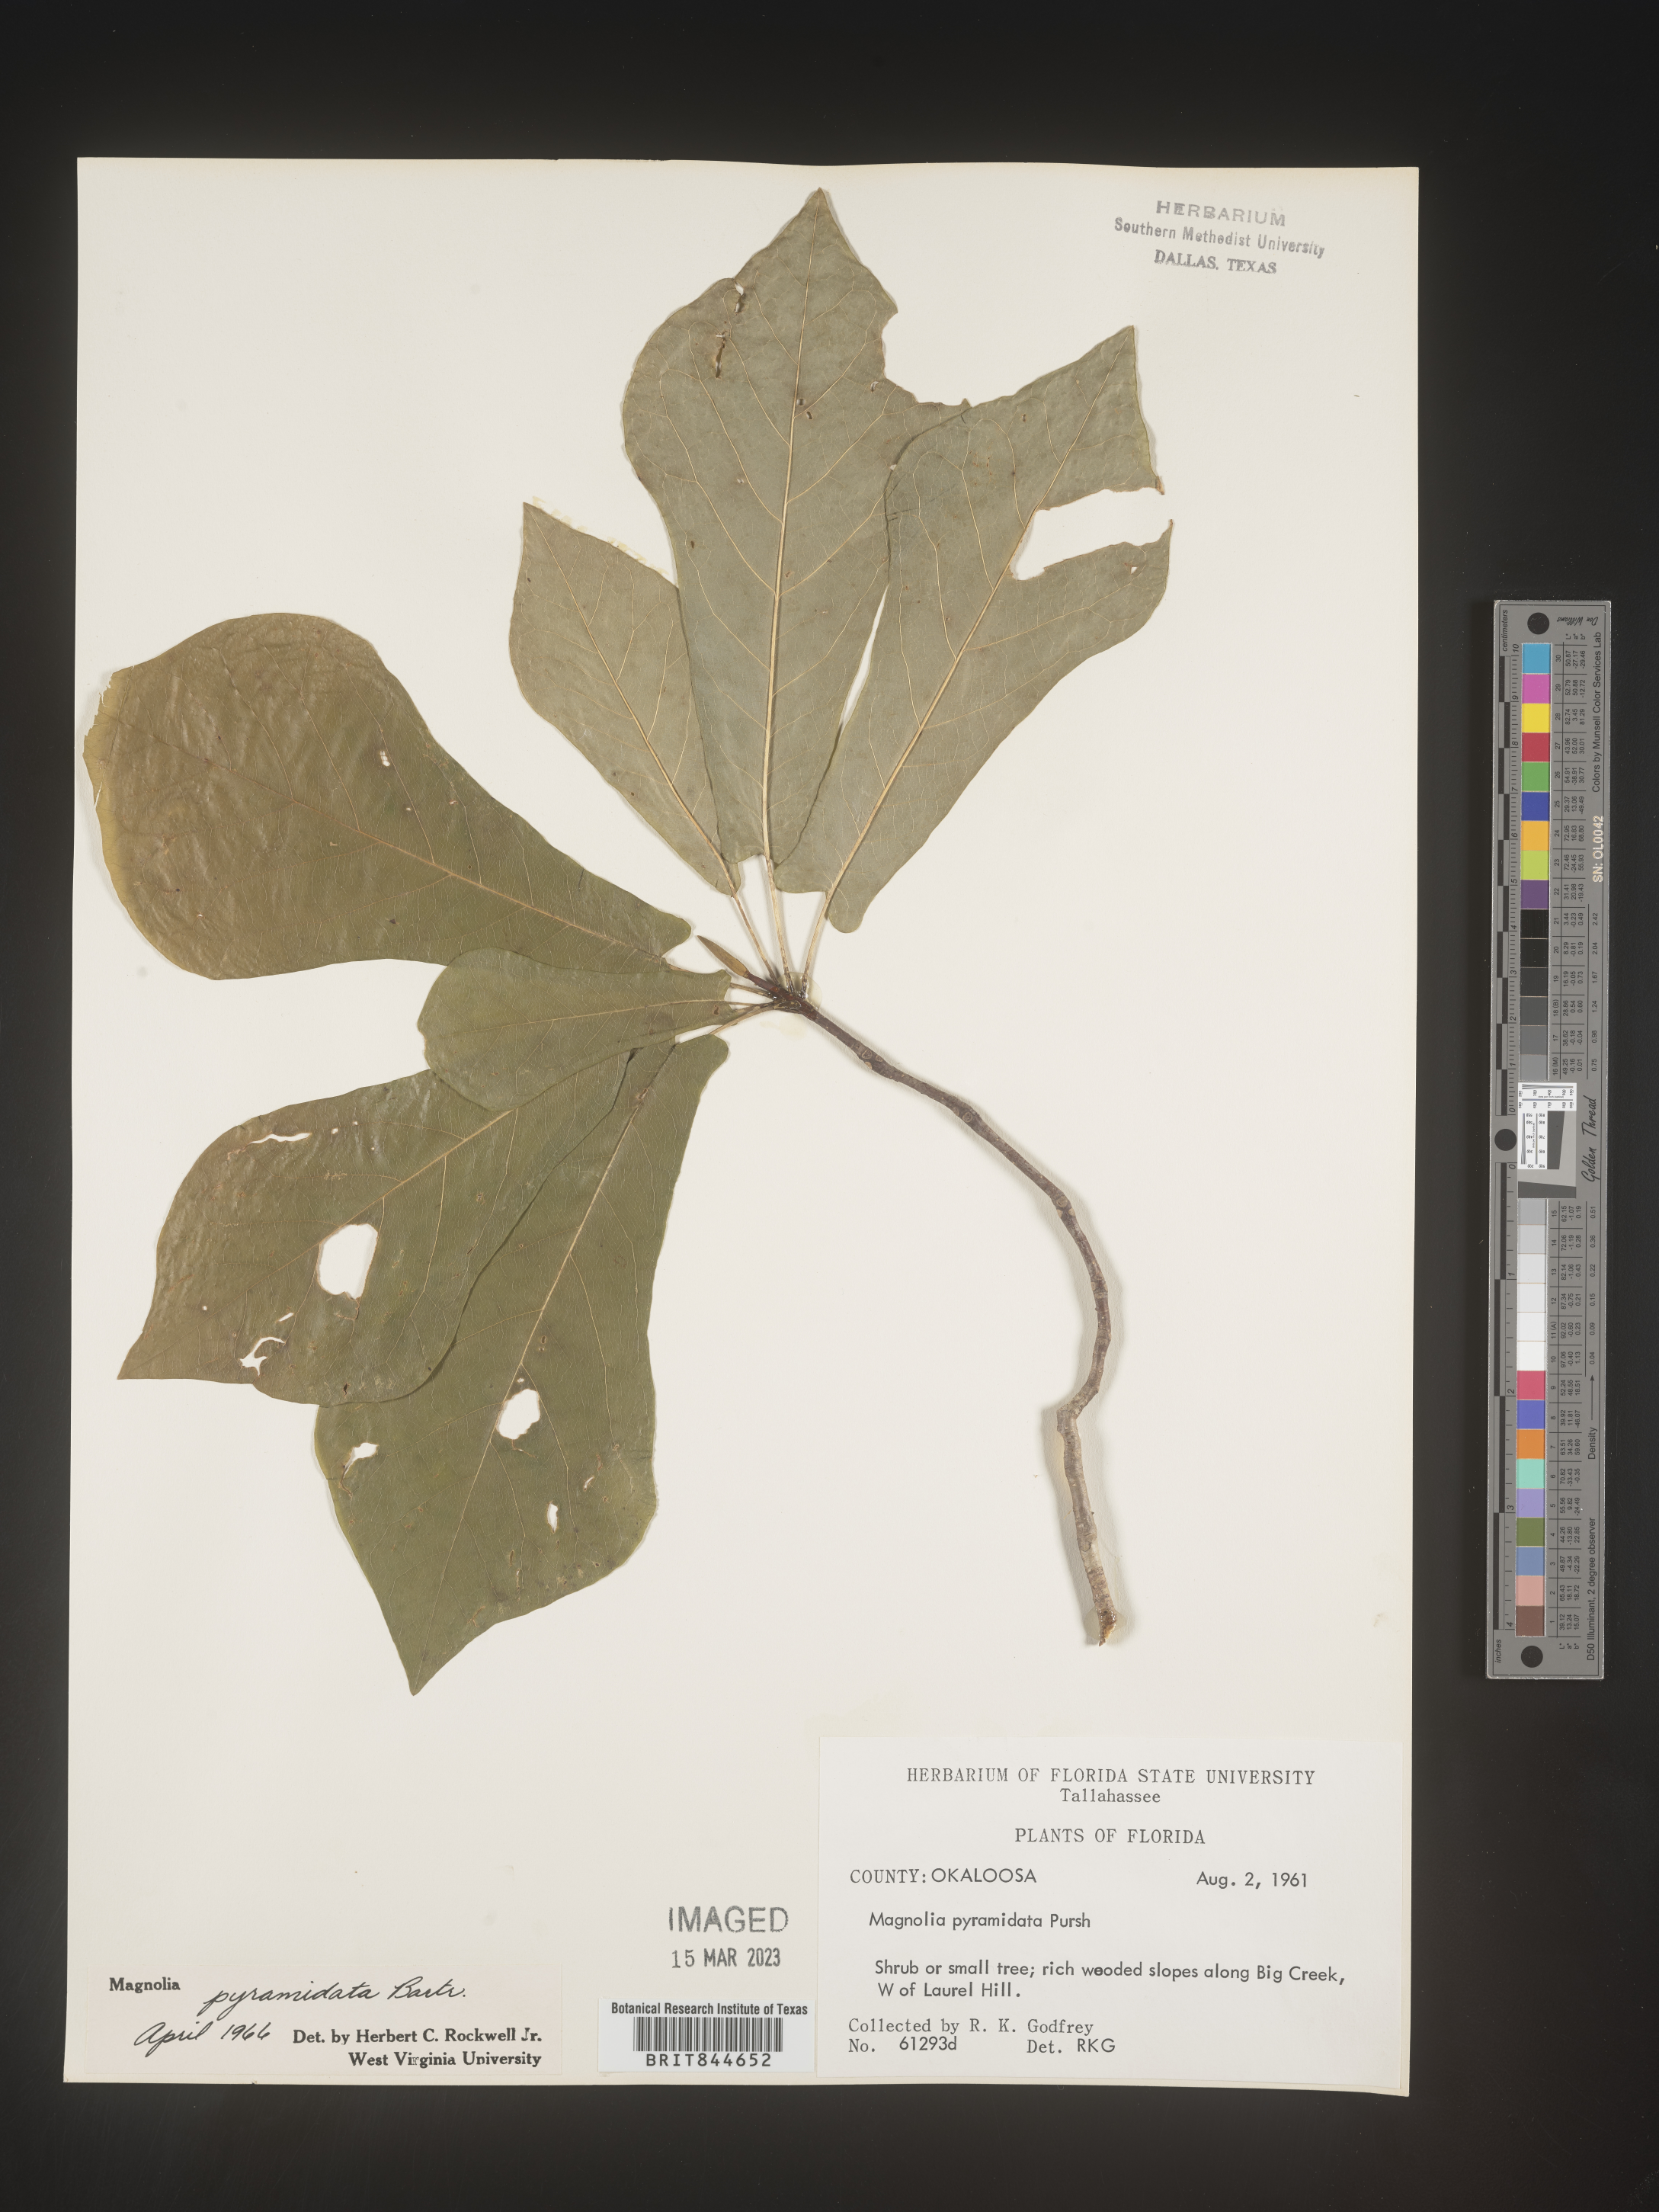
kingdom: Plantae
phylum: Tracheophyta
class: Magnoliopsida
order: Magnoliales
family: Magnoliaceae
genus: Magnolia
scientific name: Magnolia fraseri
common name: Fraser's magnolia
